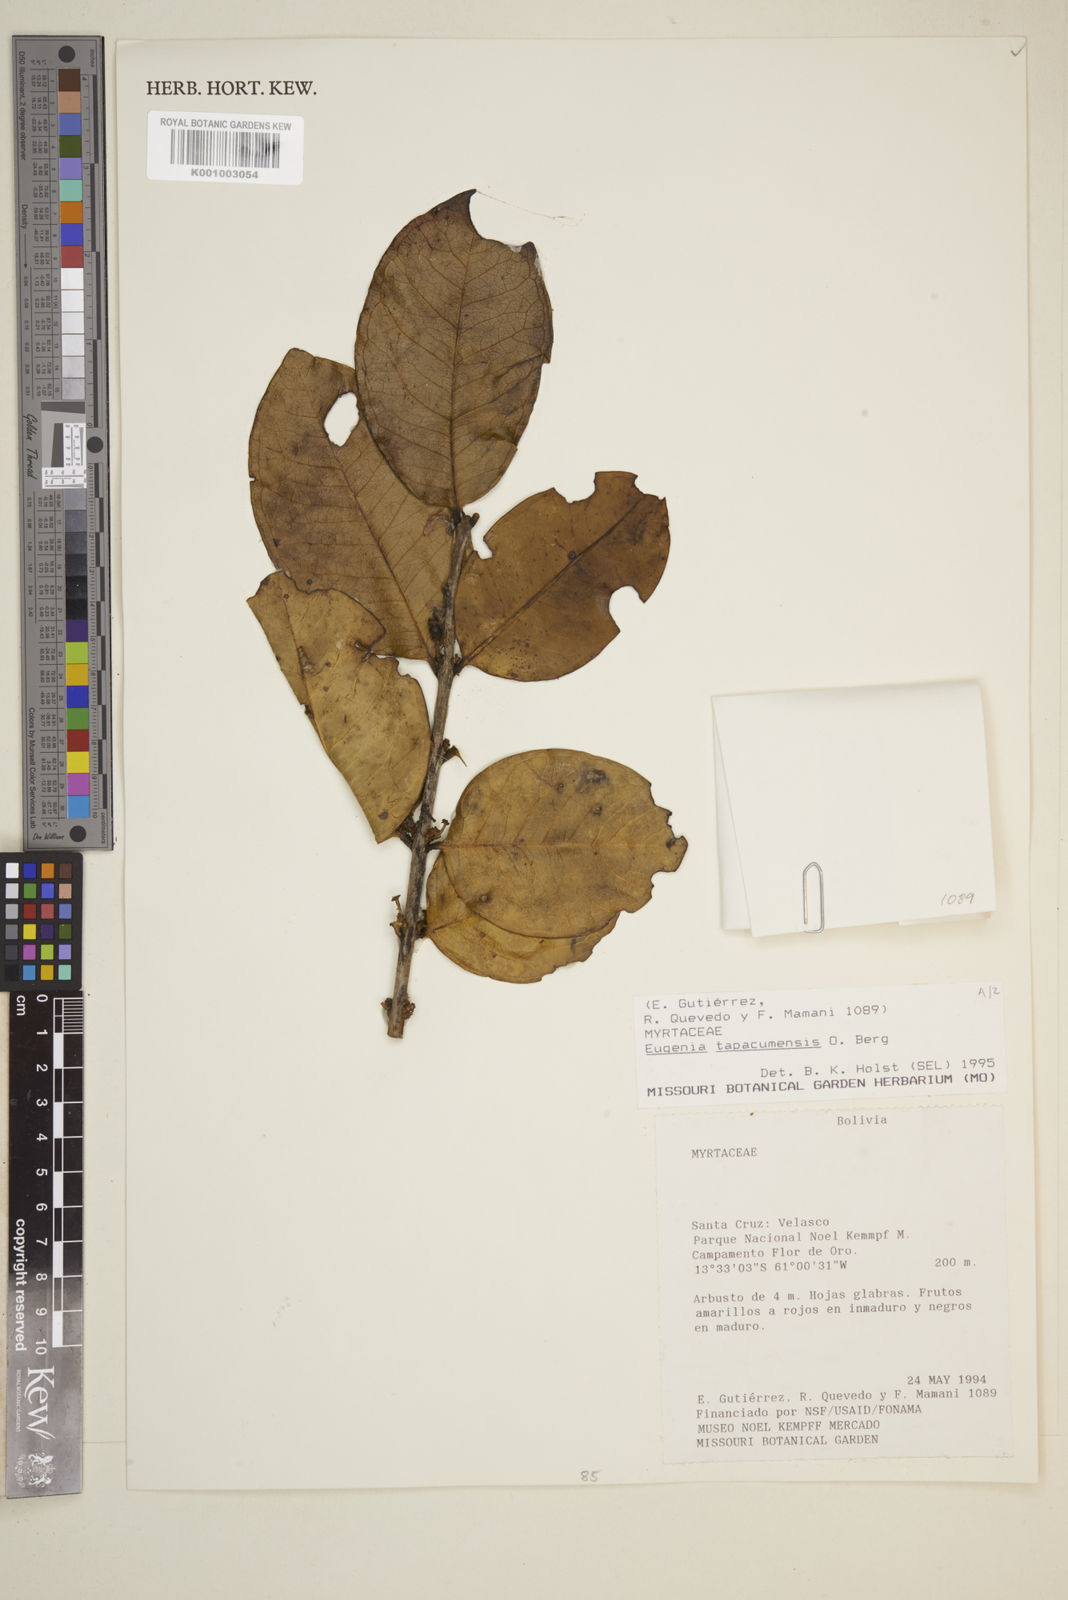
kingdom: Plantae
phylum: Tracheophyta
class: Magnoliopsida
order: Myrtales
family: Myrtaceae
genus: Eugenia
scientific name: Eugenia tapacumensis
